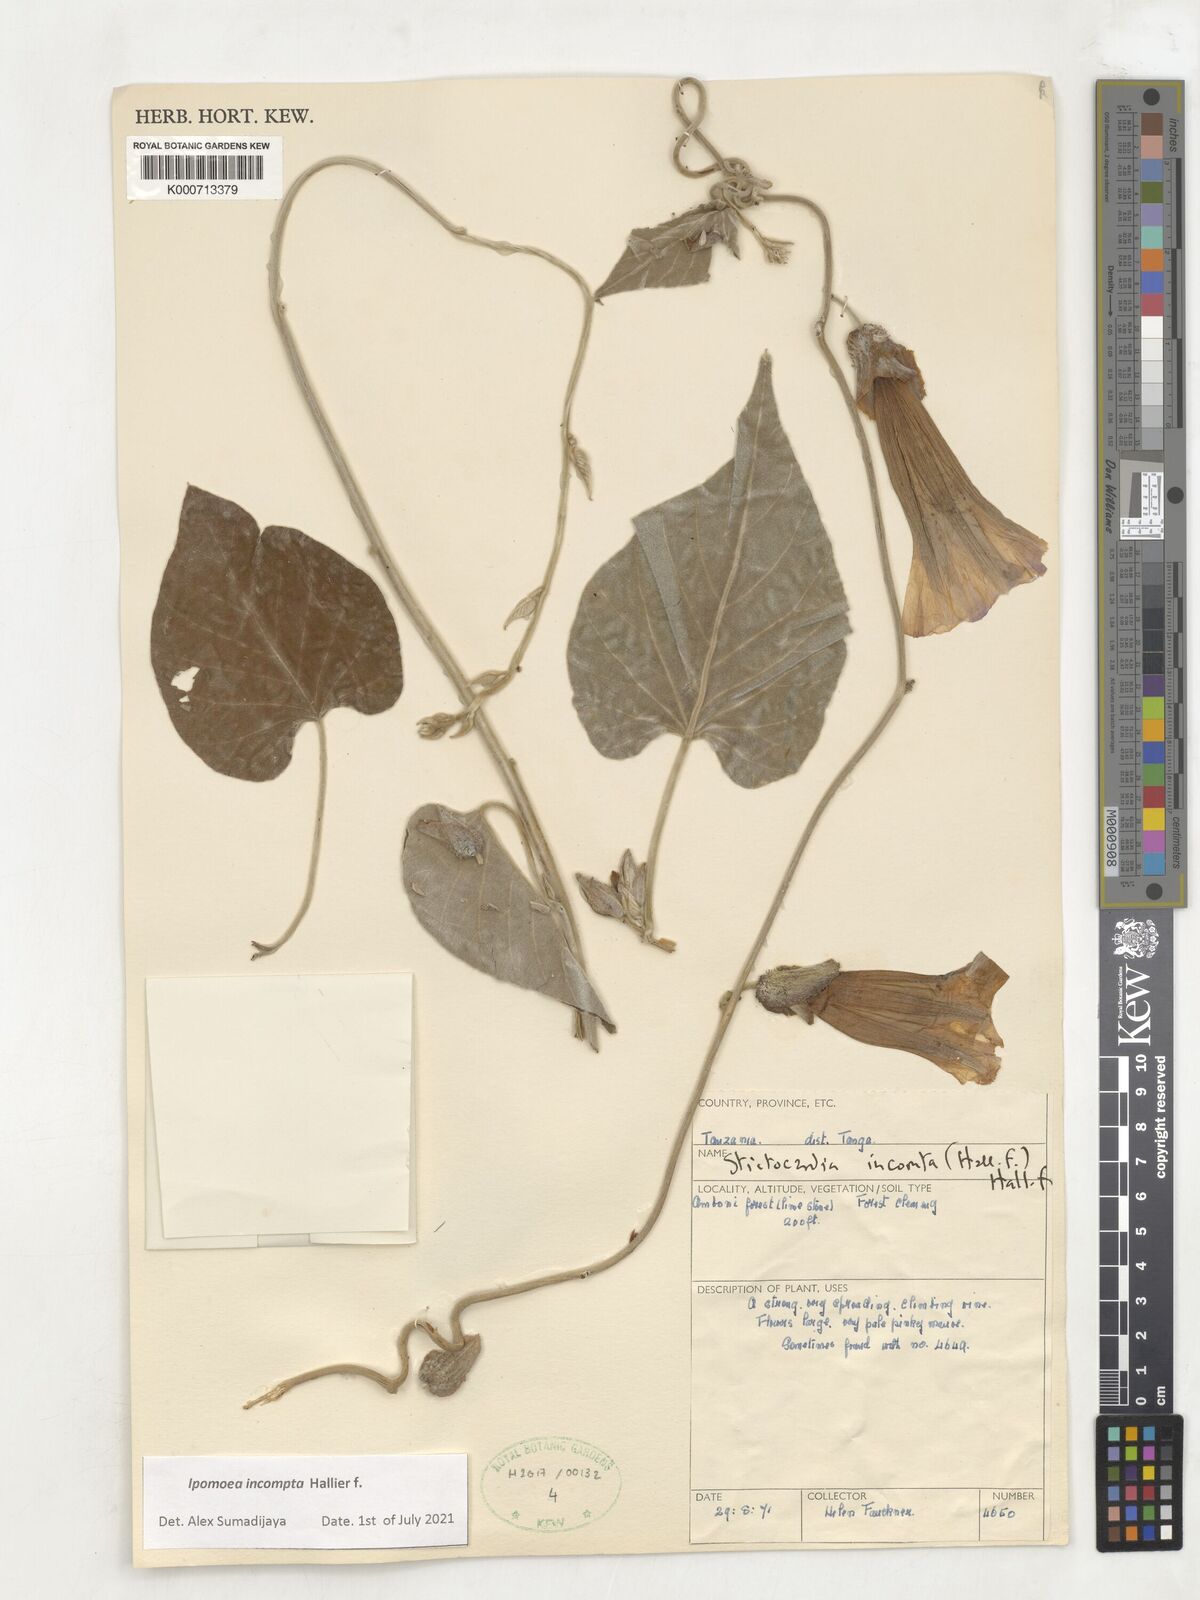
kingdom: Plantae
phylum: Tracheophyta
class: Magnoliopsida
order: Solanales
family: Convolvulaceae
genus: Stictocardia
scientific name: Stictocardia incomta
